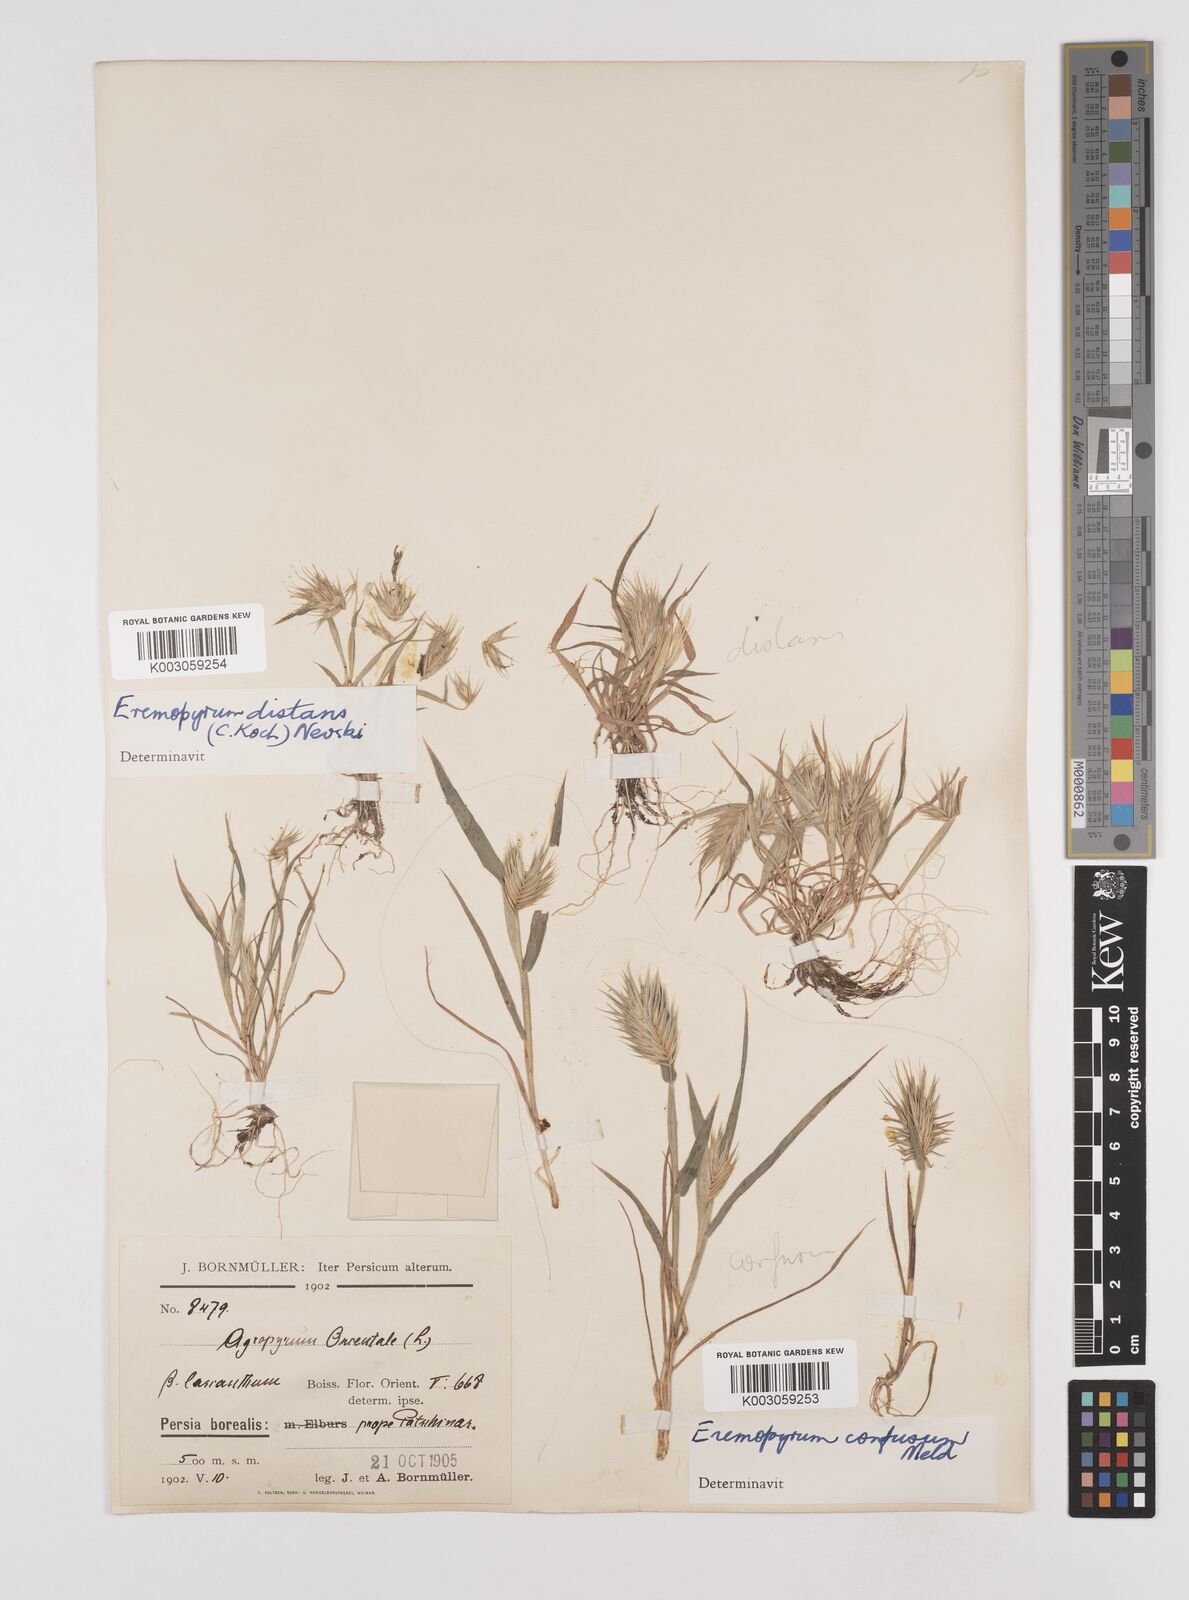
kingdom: Plantae
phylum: Tracheophyta
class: Liliopsida
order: Poales
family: Poaceae
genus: Eremopyrum
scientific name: Eremopyrum bonaepartis
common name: Tapertip false wheatgrass
